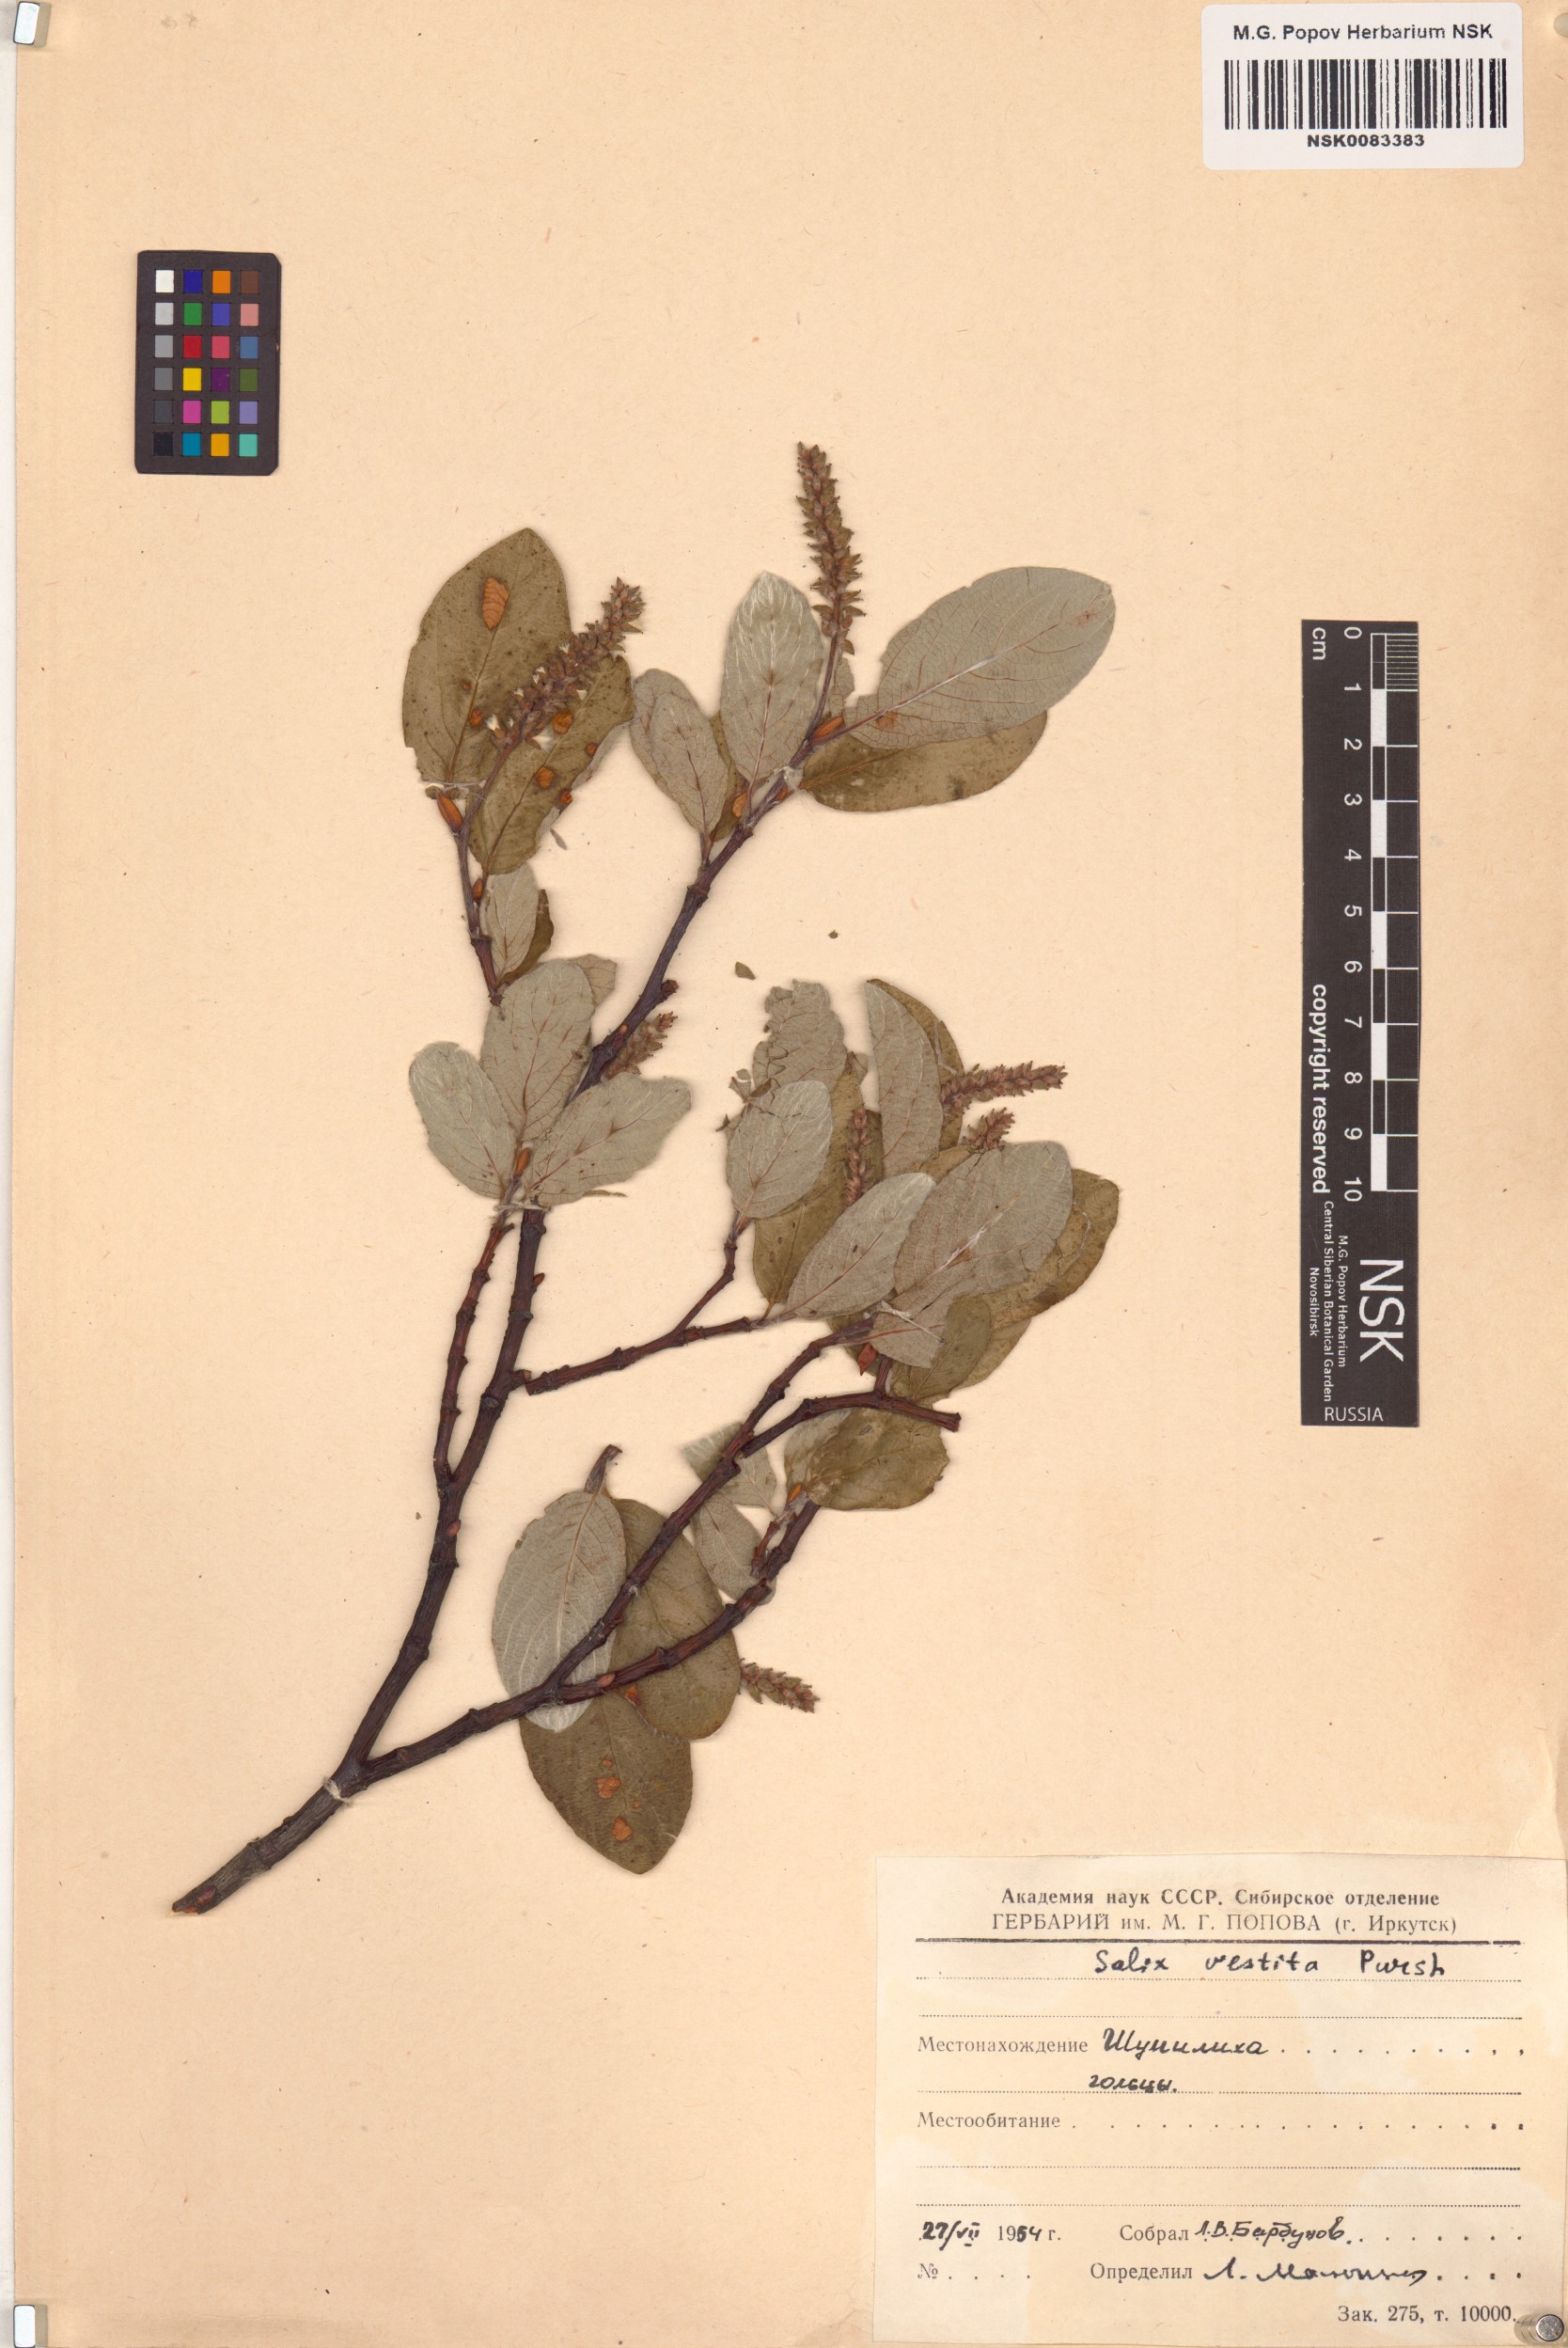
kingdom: Plantae
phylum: Tracheophyta
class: Magnoliopsida
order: Malpighiales
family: Salicaceae
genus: Salix
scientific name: Salix vestita
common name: Hairy willow
